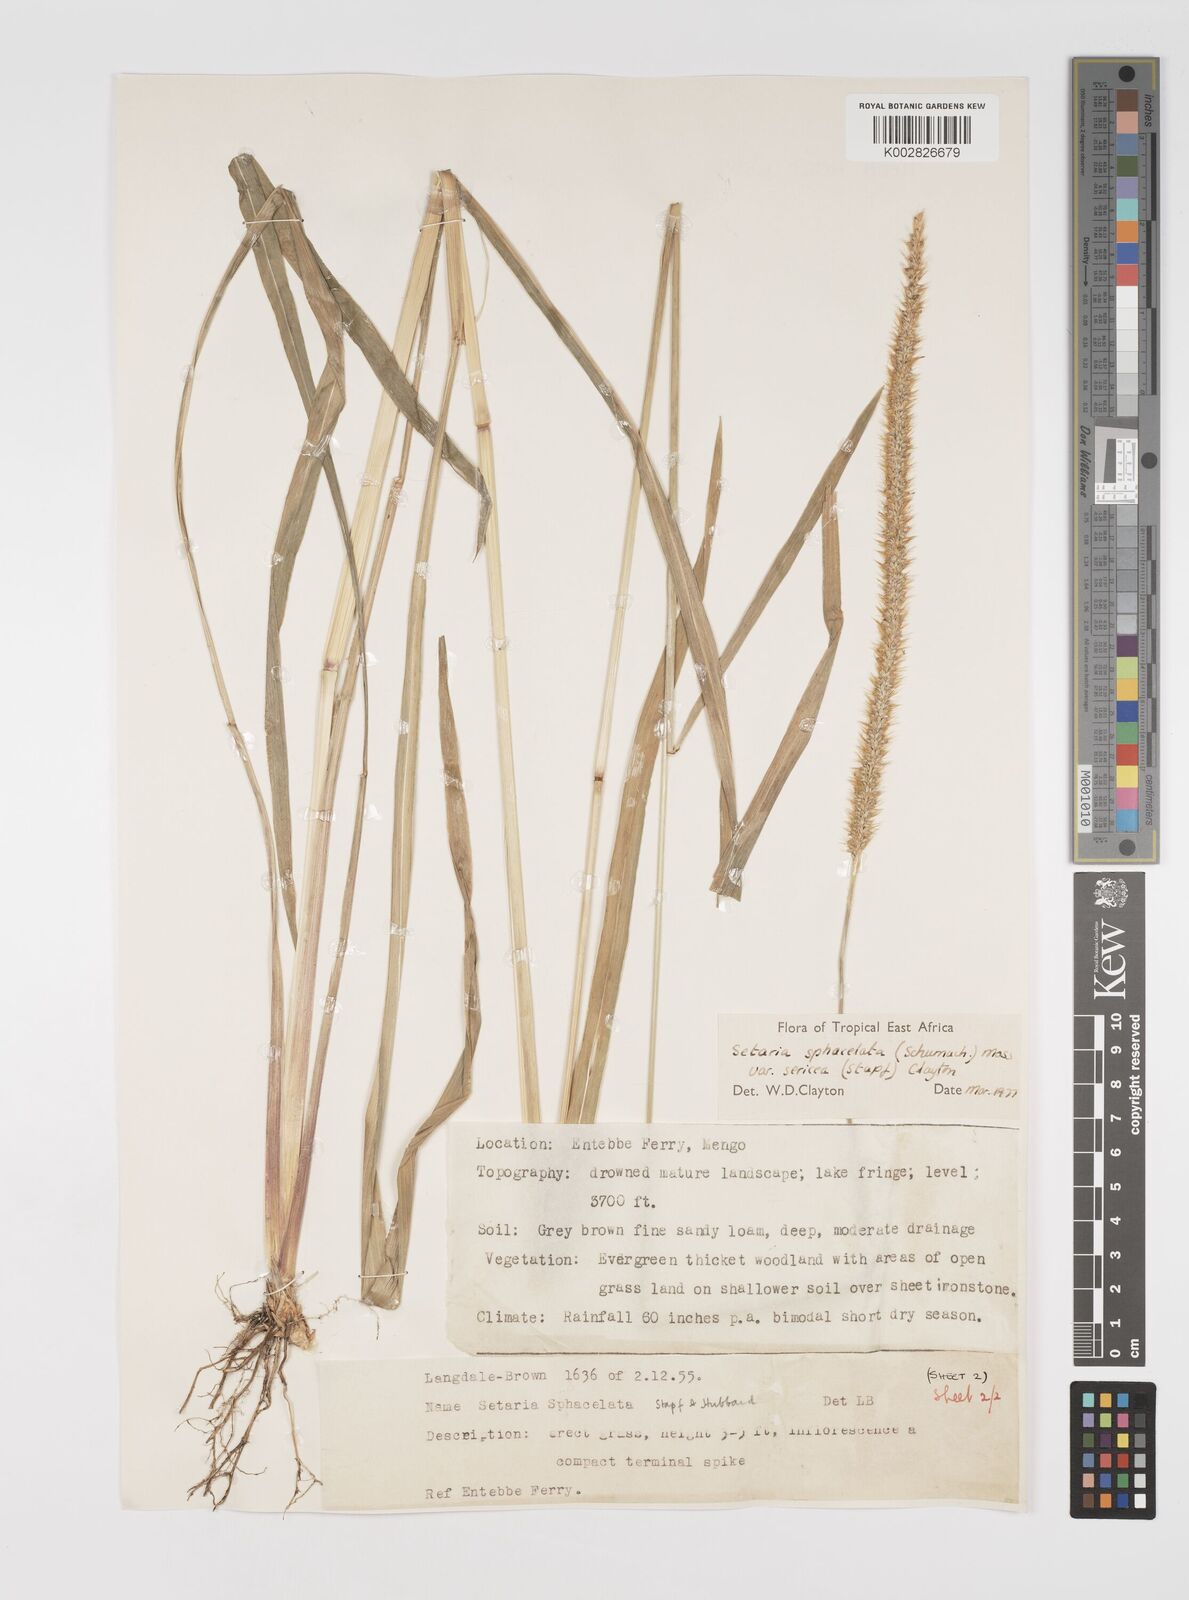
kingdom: Plantae
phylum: Tracheophyta
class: Liliopsida
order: Poales
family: Poaceae
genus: Setaria
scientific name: Setaria sphacelata
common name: African bristlegrass
